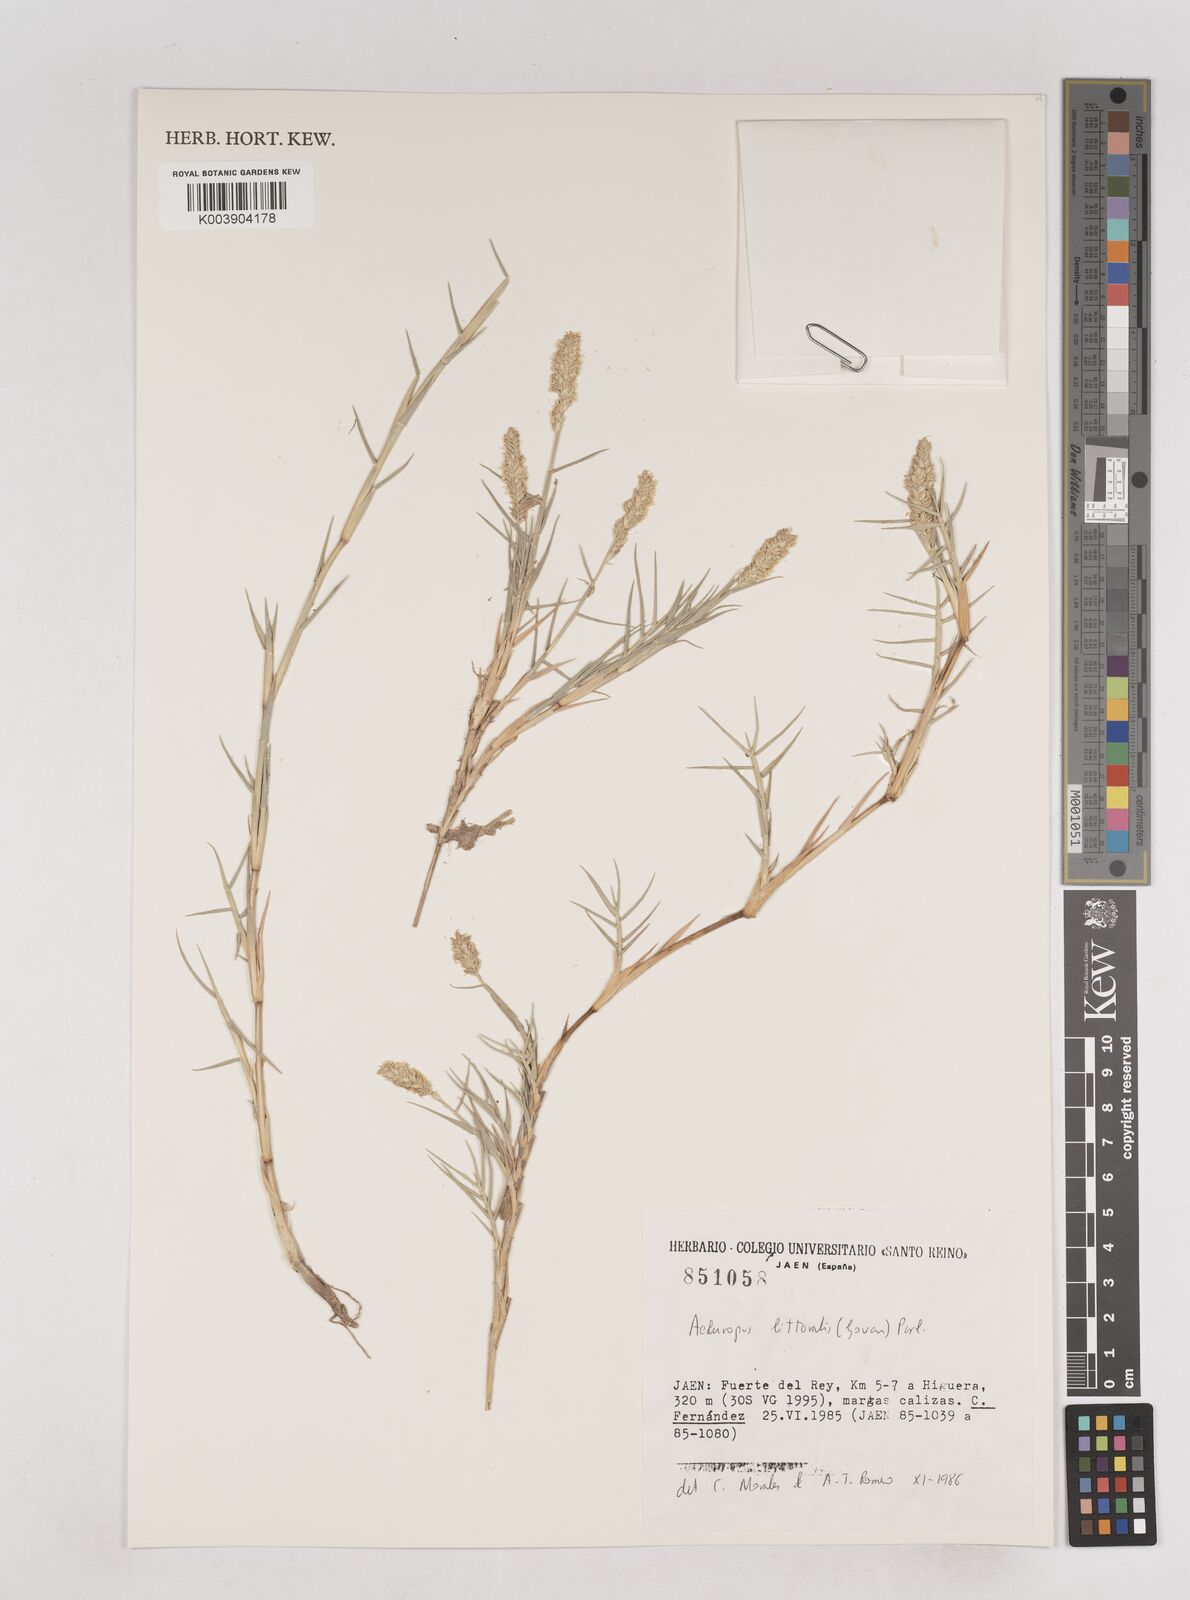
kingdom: Plantae
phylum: Tracheophyta
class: Liliopsida
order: Poales
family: Poaceae
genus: Aeluropus
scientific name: Aeluropus littoralis
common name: Indian walnut
